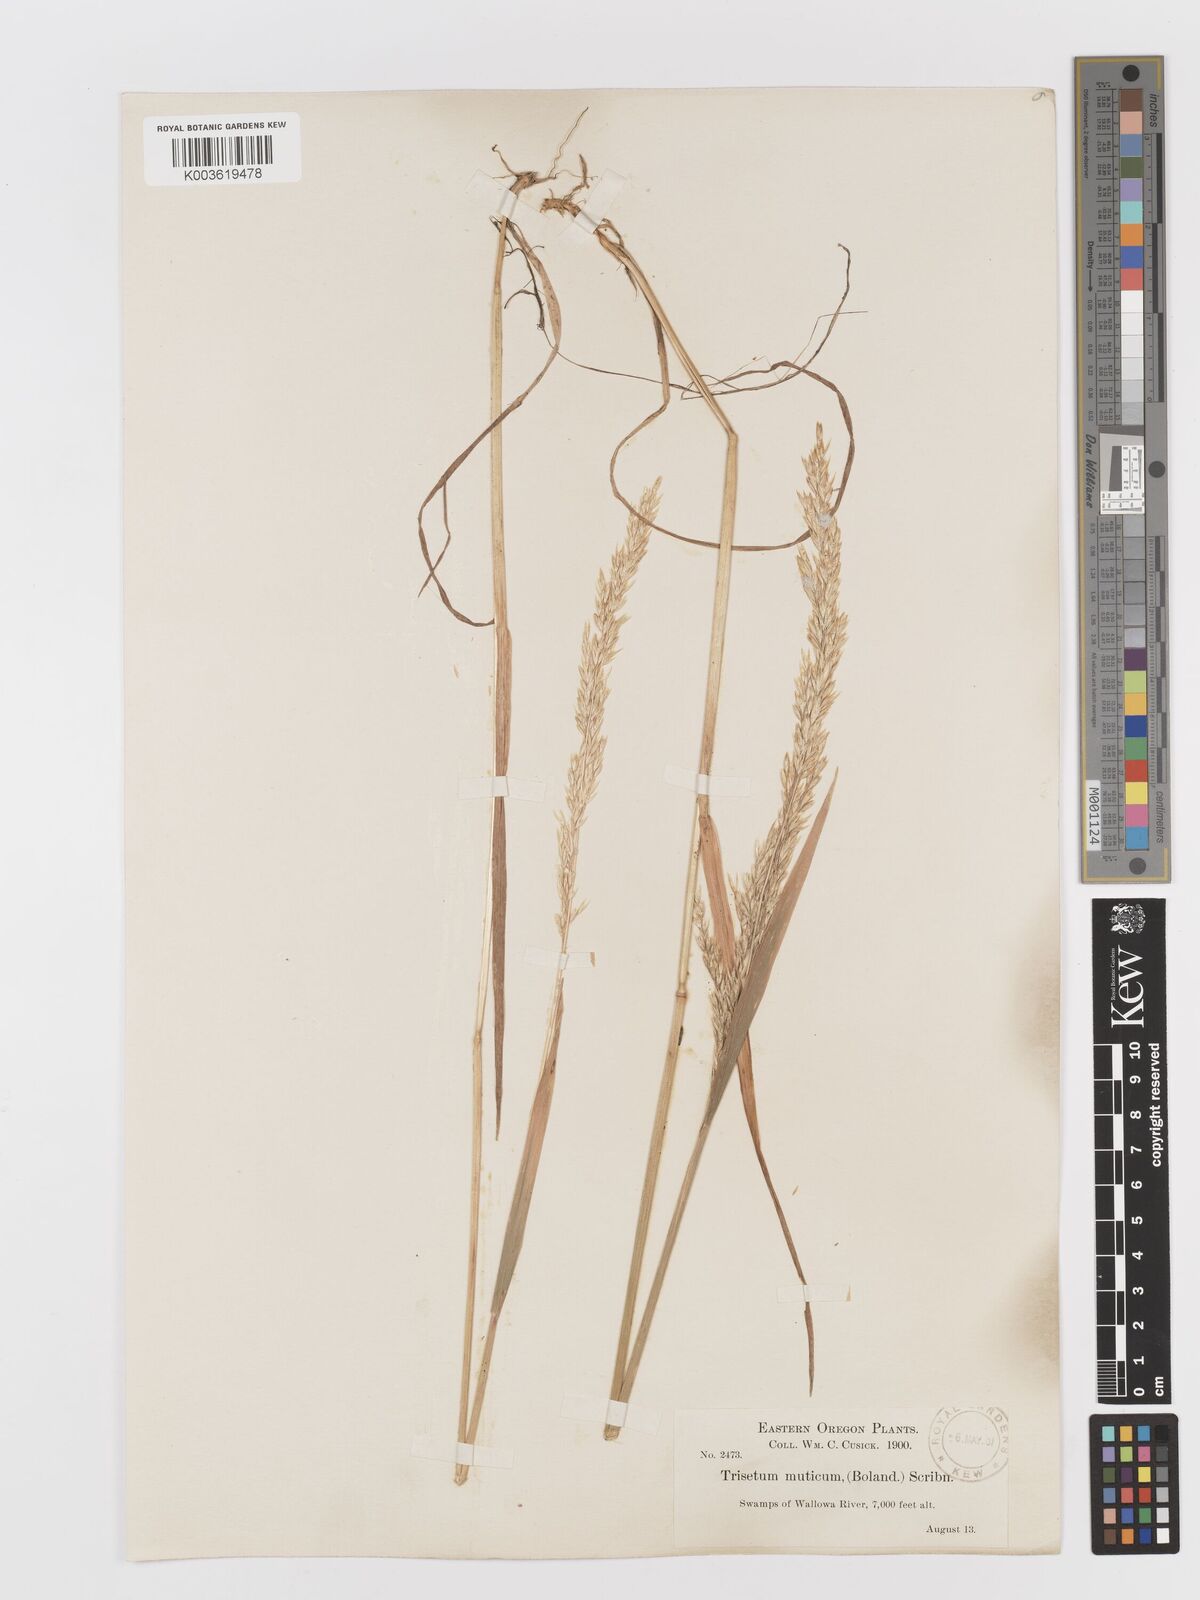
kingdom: Plantae
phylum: Tracheophyta
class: Liliopsida
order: Poales
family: Poaceae
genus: Graphephorum
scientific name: Graphephorum wolfii
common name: Wolf's trisetum
